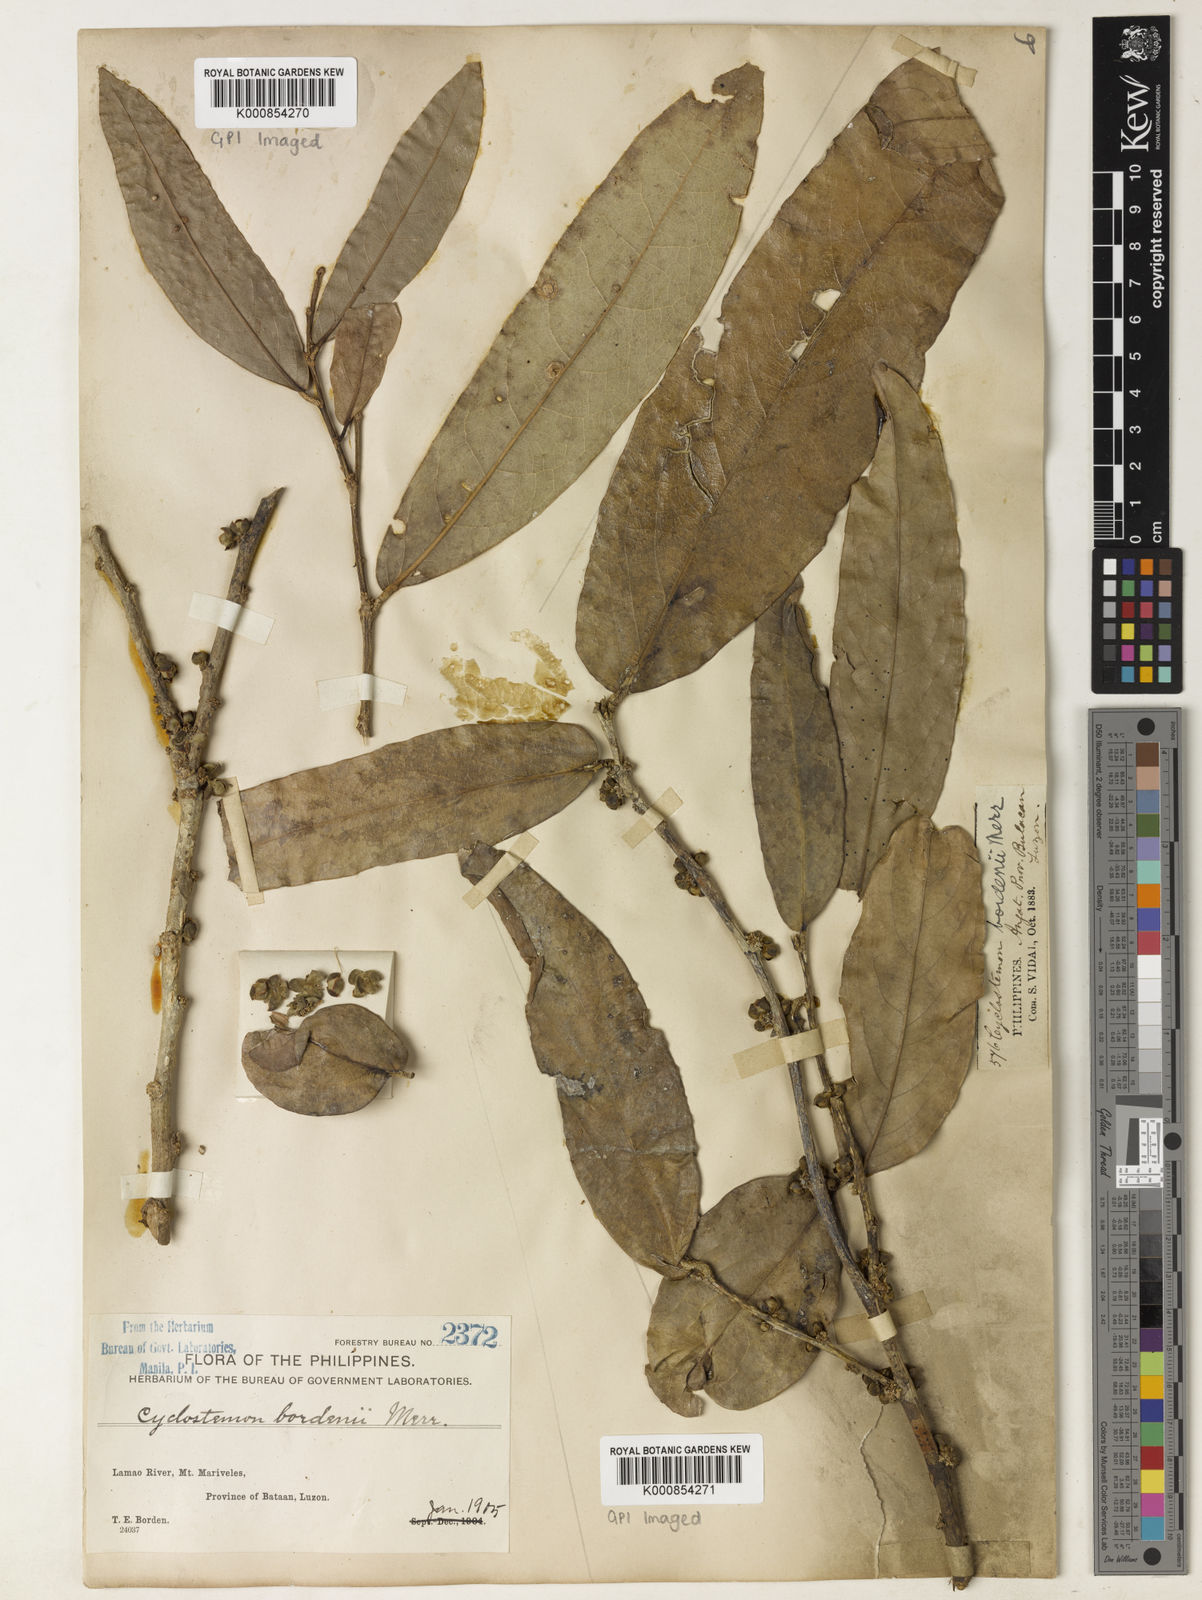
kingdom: Plantae
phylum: Tracheophyta
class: Magnoliopsida
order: Malpighiales
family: Putranjivaceae
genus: Drypetes
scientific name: Drypetes longifolia
